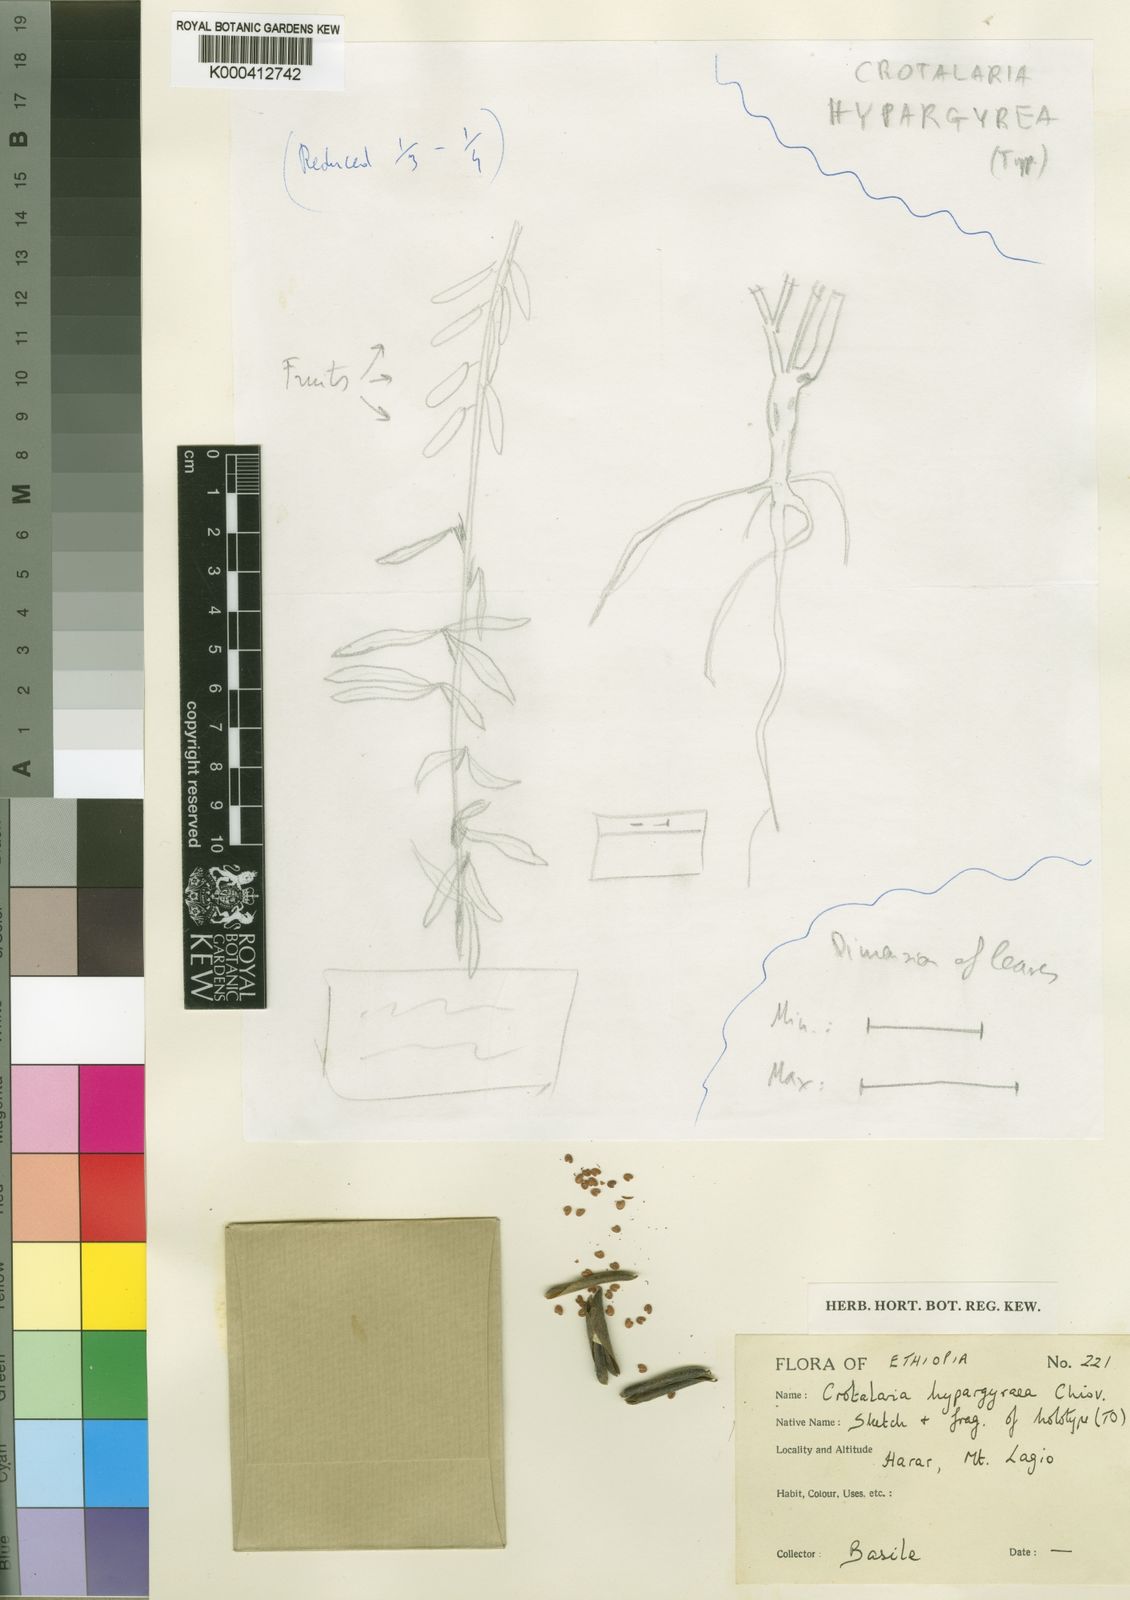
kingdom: Plantae
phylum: Tracheophyta
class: Magnoliopsida
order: Fabales
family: Fabaceae
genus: Crotalaria
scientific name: Crotalaria
